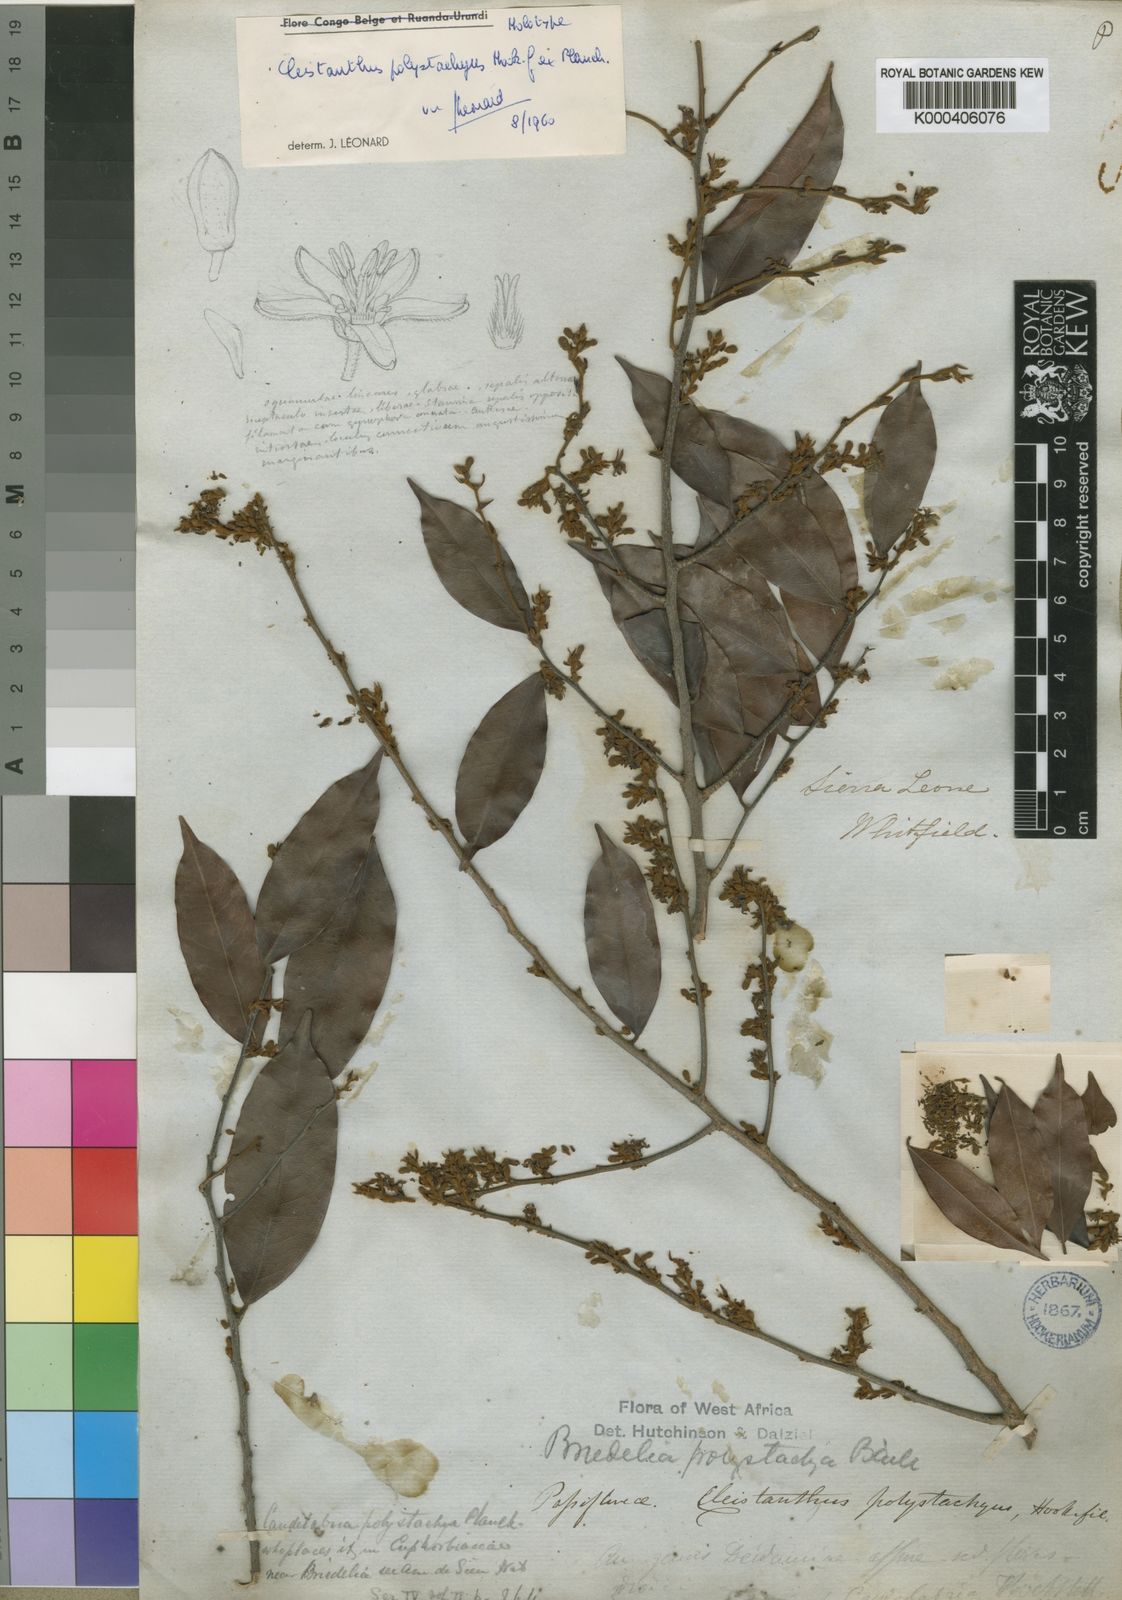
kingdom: Plantae
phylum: Tracheophyta
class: Magnoliopsida
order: Malpighiales
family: Phyllanthaceae
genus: Cleistanthus
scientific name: Cleistanthus polystachyus
